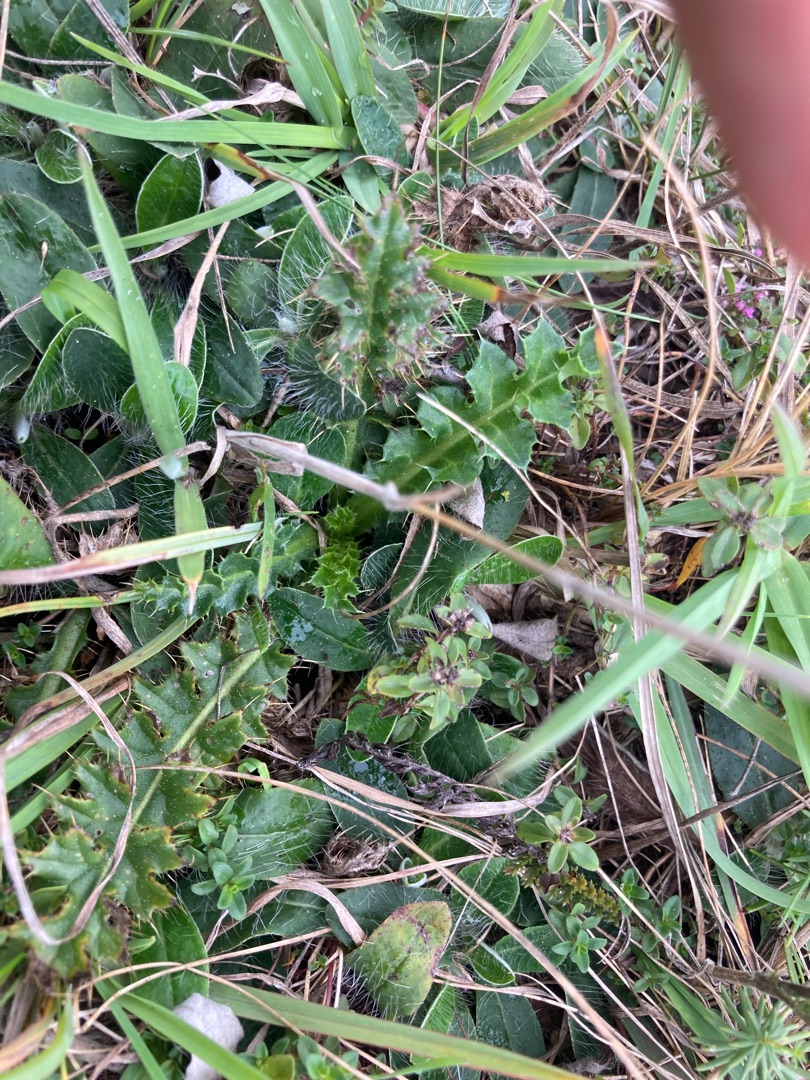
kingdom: Plantae
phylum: Tracheophyta
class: Magnoliopsida
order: Asterales
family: Asteraceae
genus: Cirsium
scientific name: Cirsium acaule
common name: Lav tidsel
